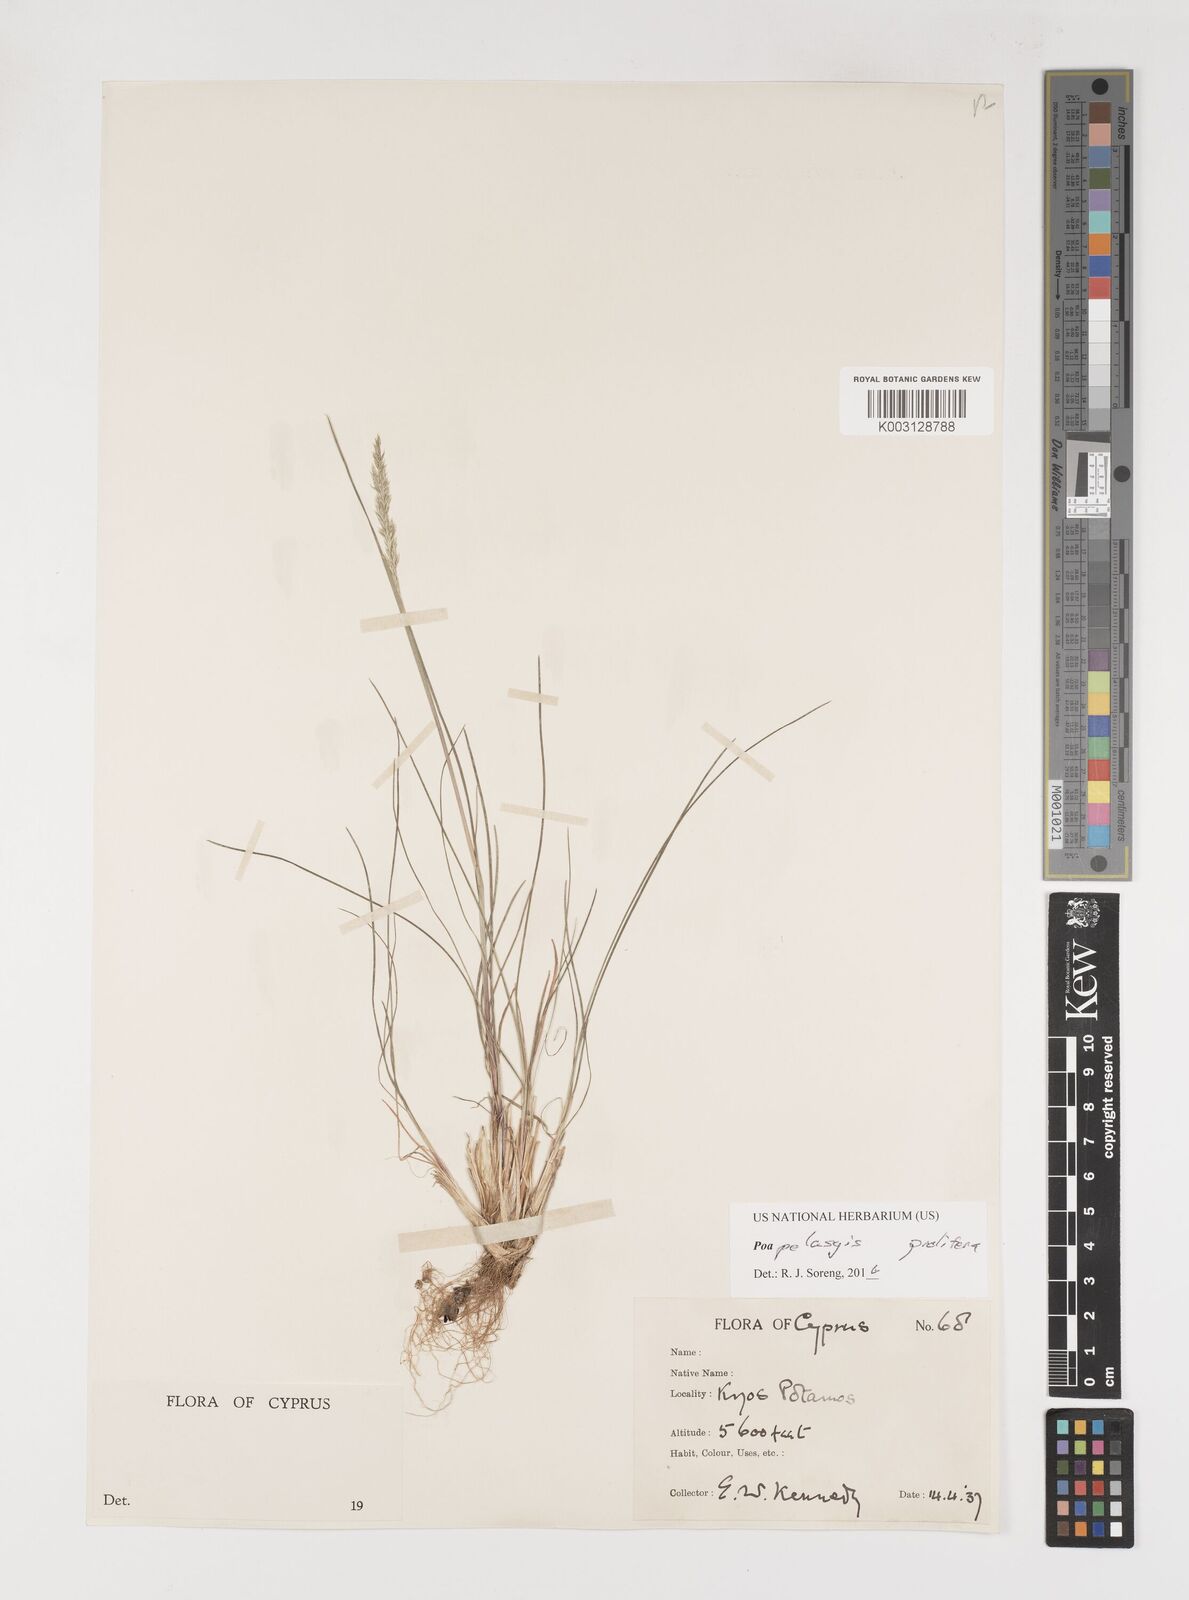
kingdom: Plantae
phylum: Tracheophyta
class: Liliopsida
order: Poales
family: Poaceae
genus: Poa
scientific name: Poa iconia
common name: Konya bluegrass
